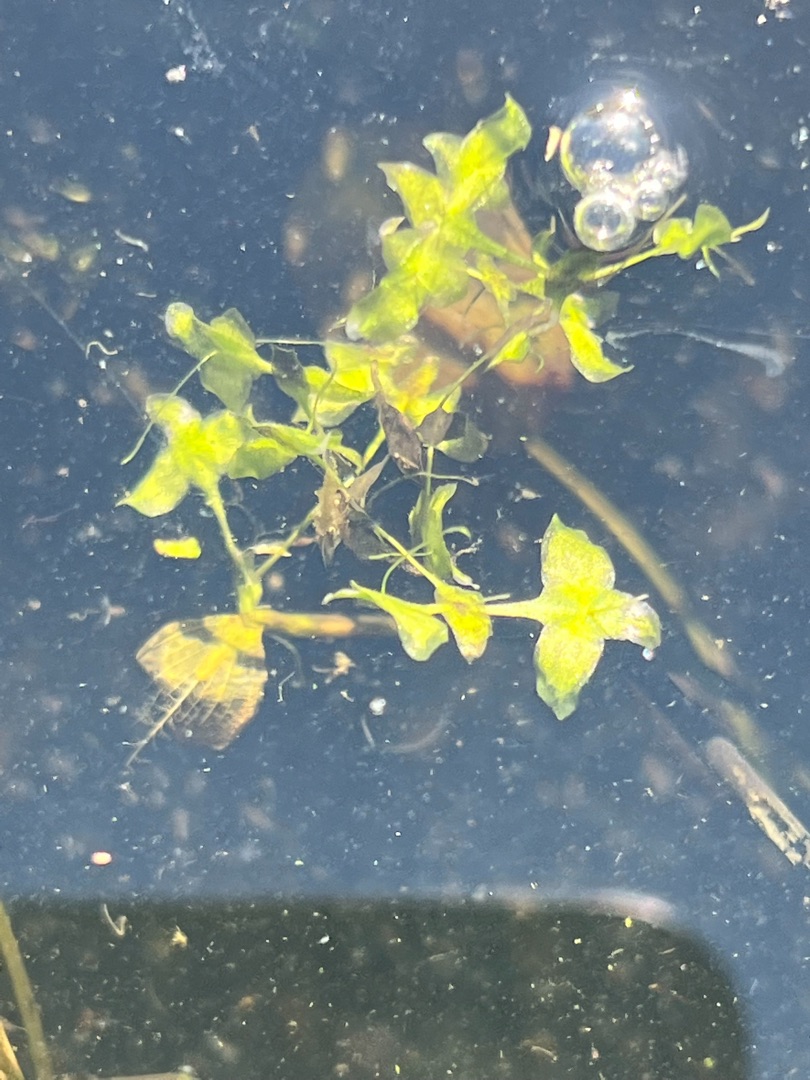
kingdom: Plantae
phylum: Tracheophyta
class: Liliopsida
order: Alismatales
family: Araceae
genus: Lemna
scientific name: Lemna trisulca
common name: Kors-andemad
